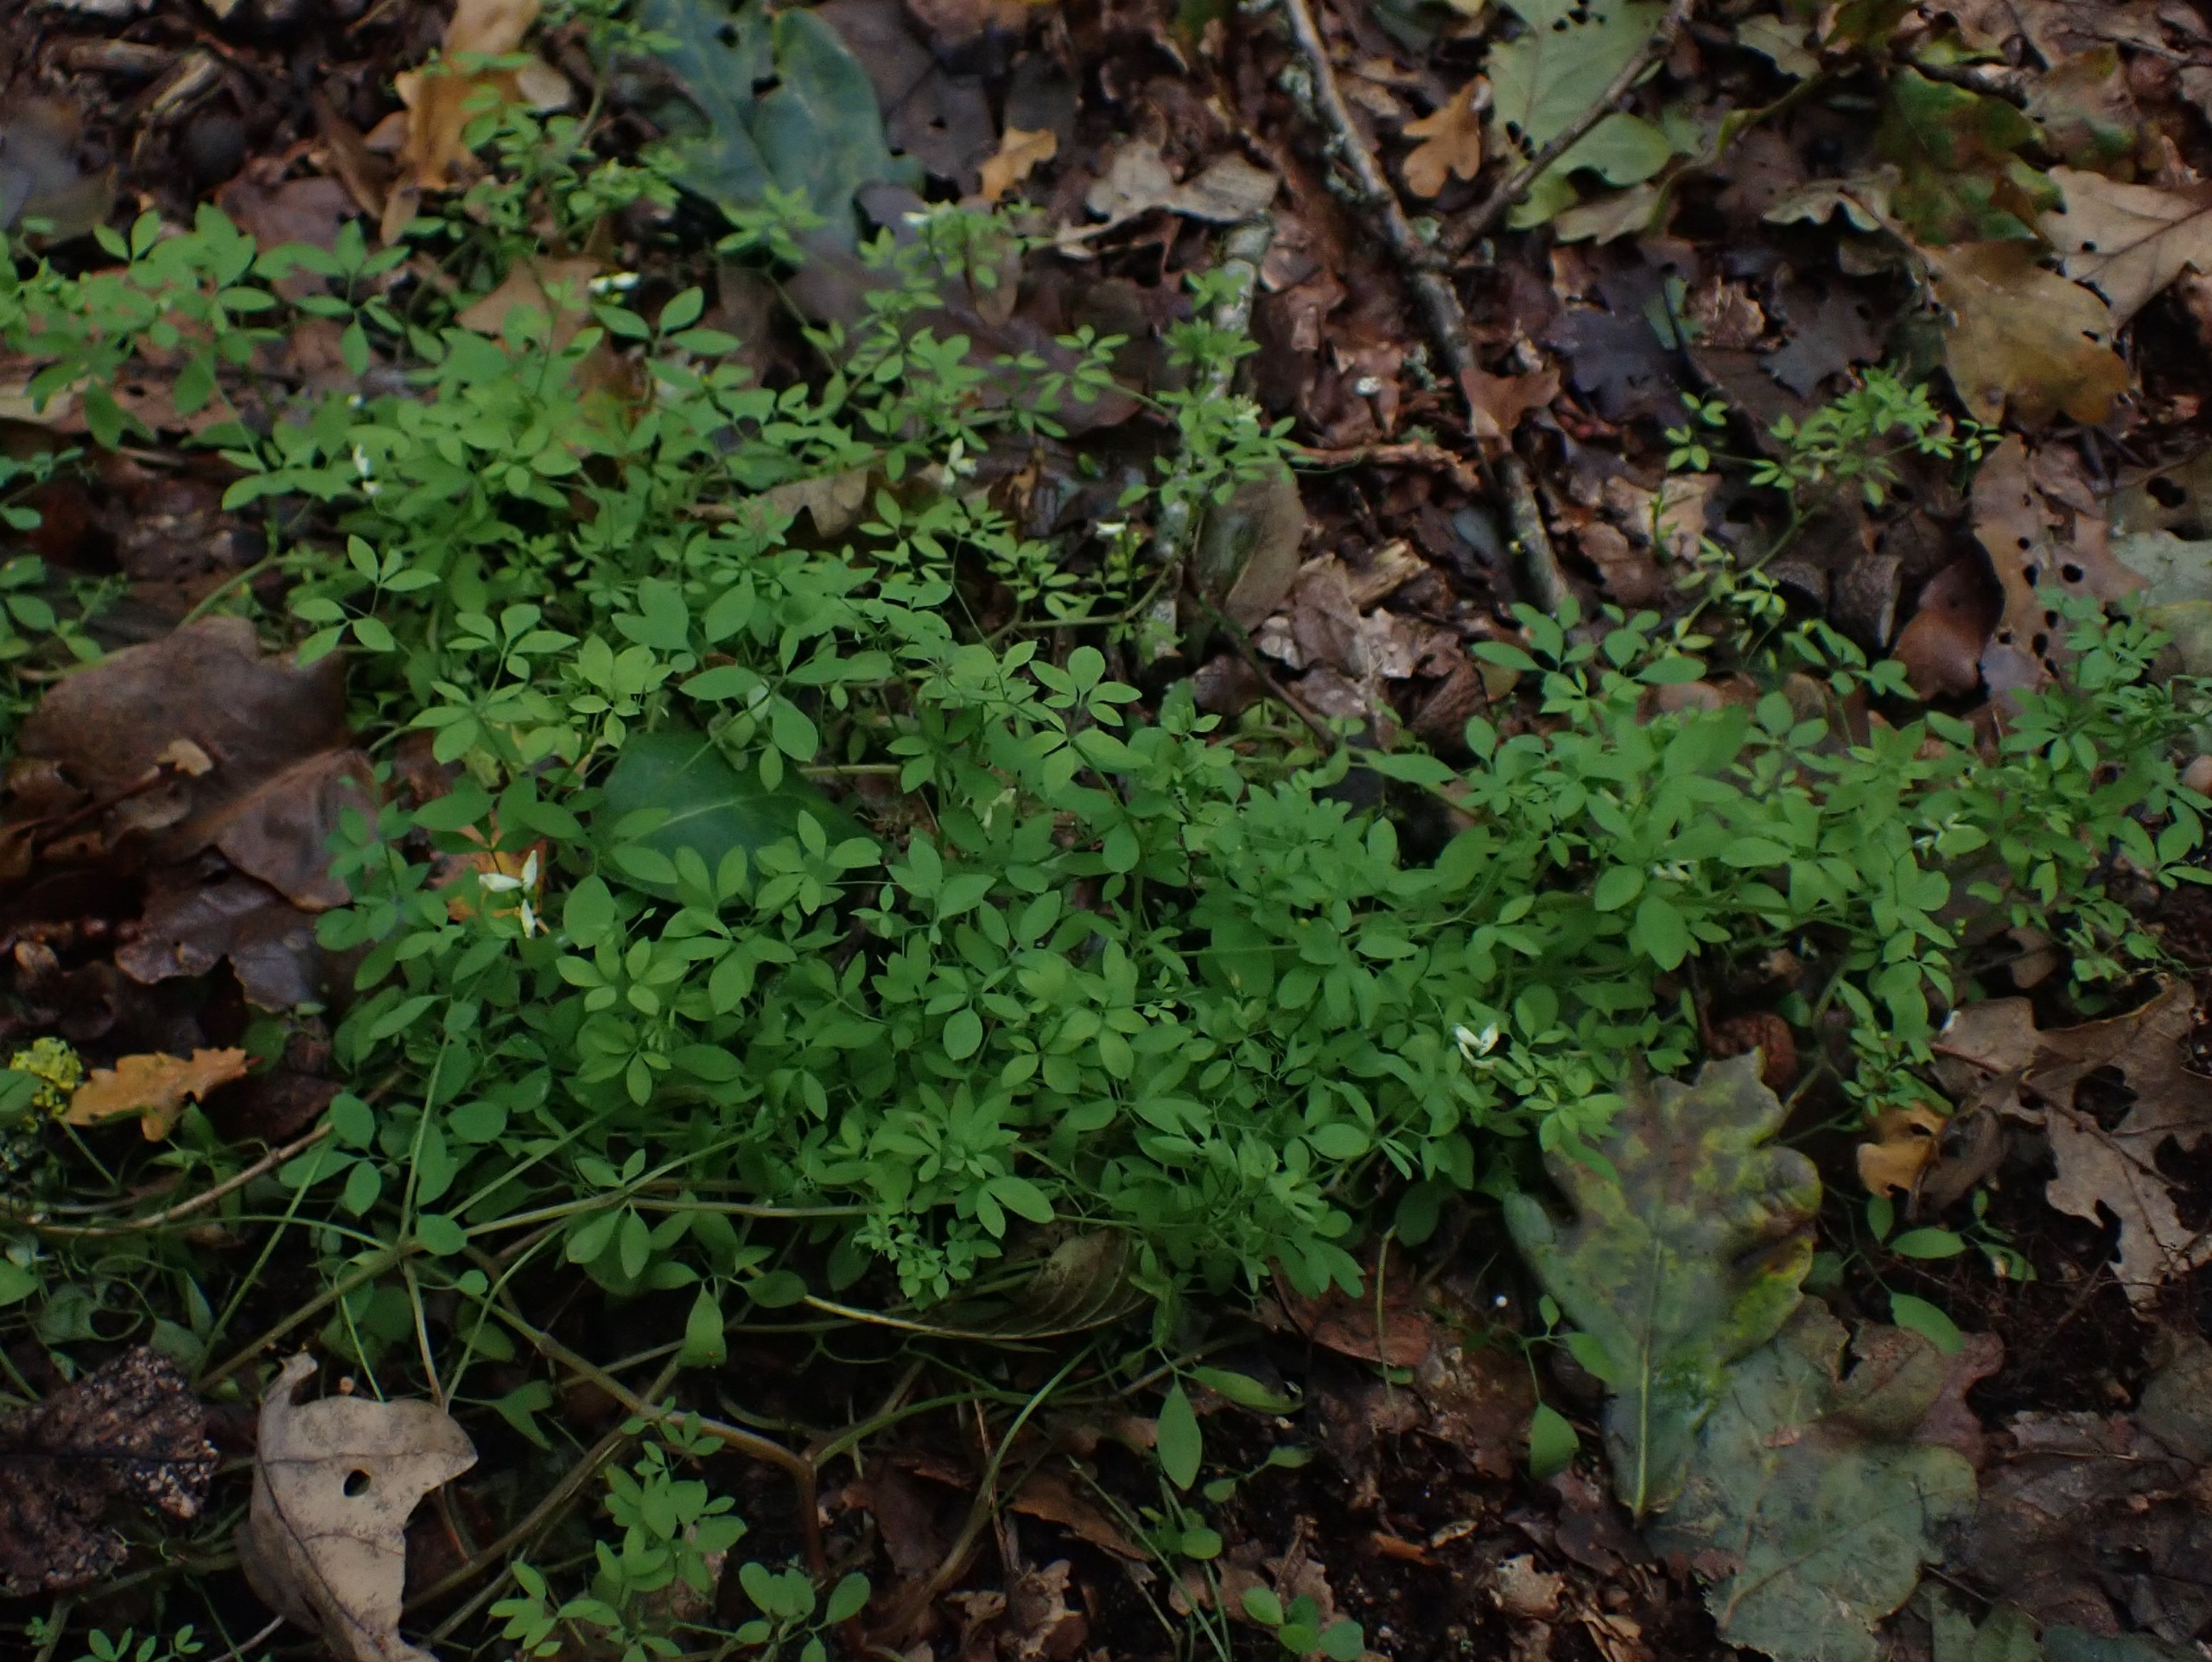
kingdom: Plantae
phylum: Tracheophyta
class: Magnoliopsida
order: Ranunculales
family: Papaveraceae
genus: Ceratocapnos
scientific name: Ceratocapnos claviculata
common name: Klatrende lærkespore
